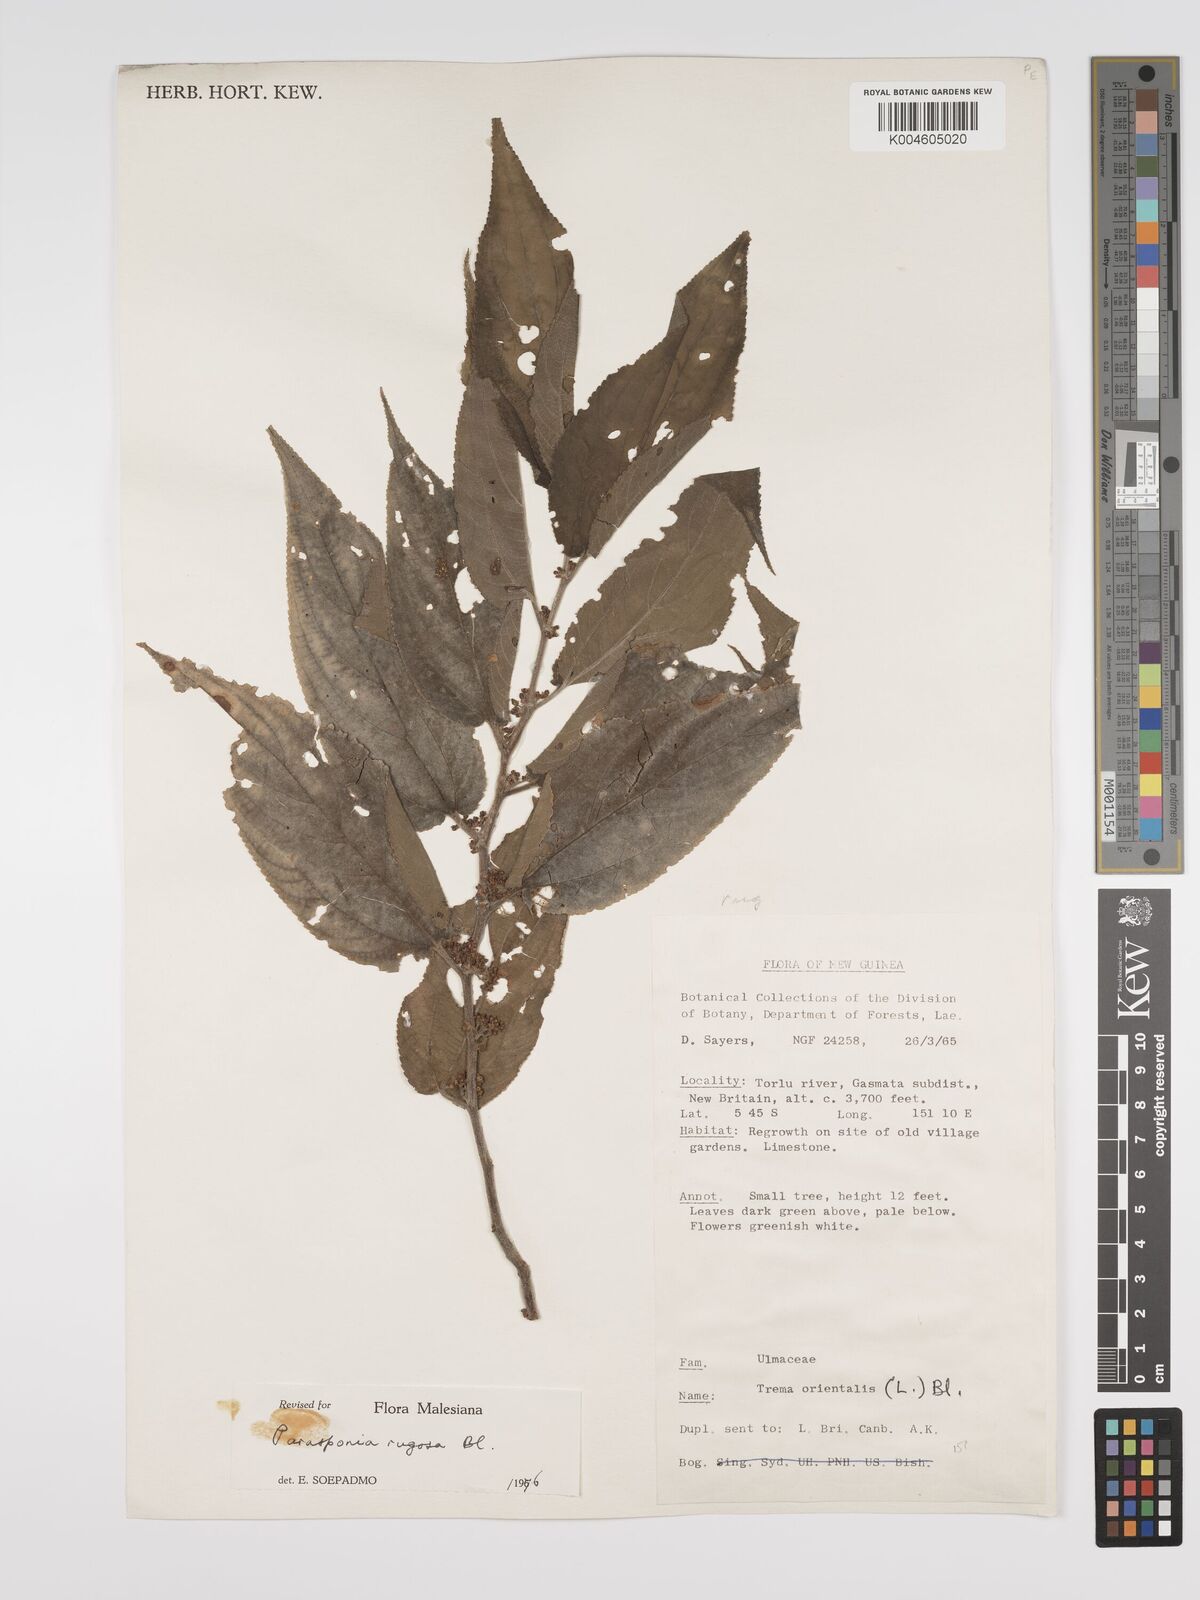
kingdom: Plantae
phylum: Tracheophyta
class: Magnoliopsida
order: Rosales
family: Cannabaceae
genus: Trema
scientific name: Trema eurhynchum
